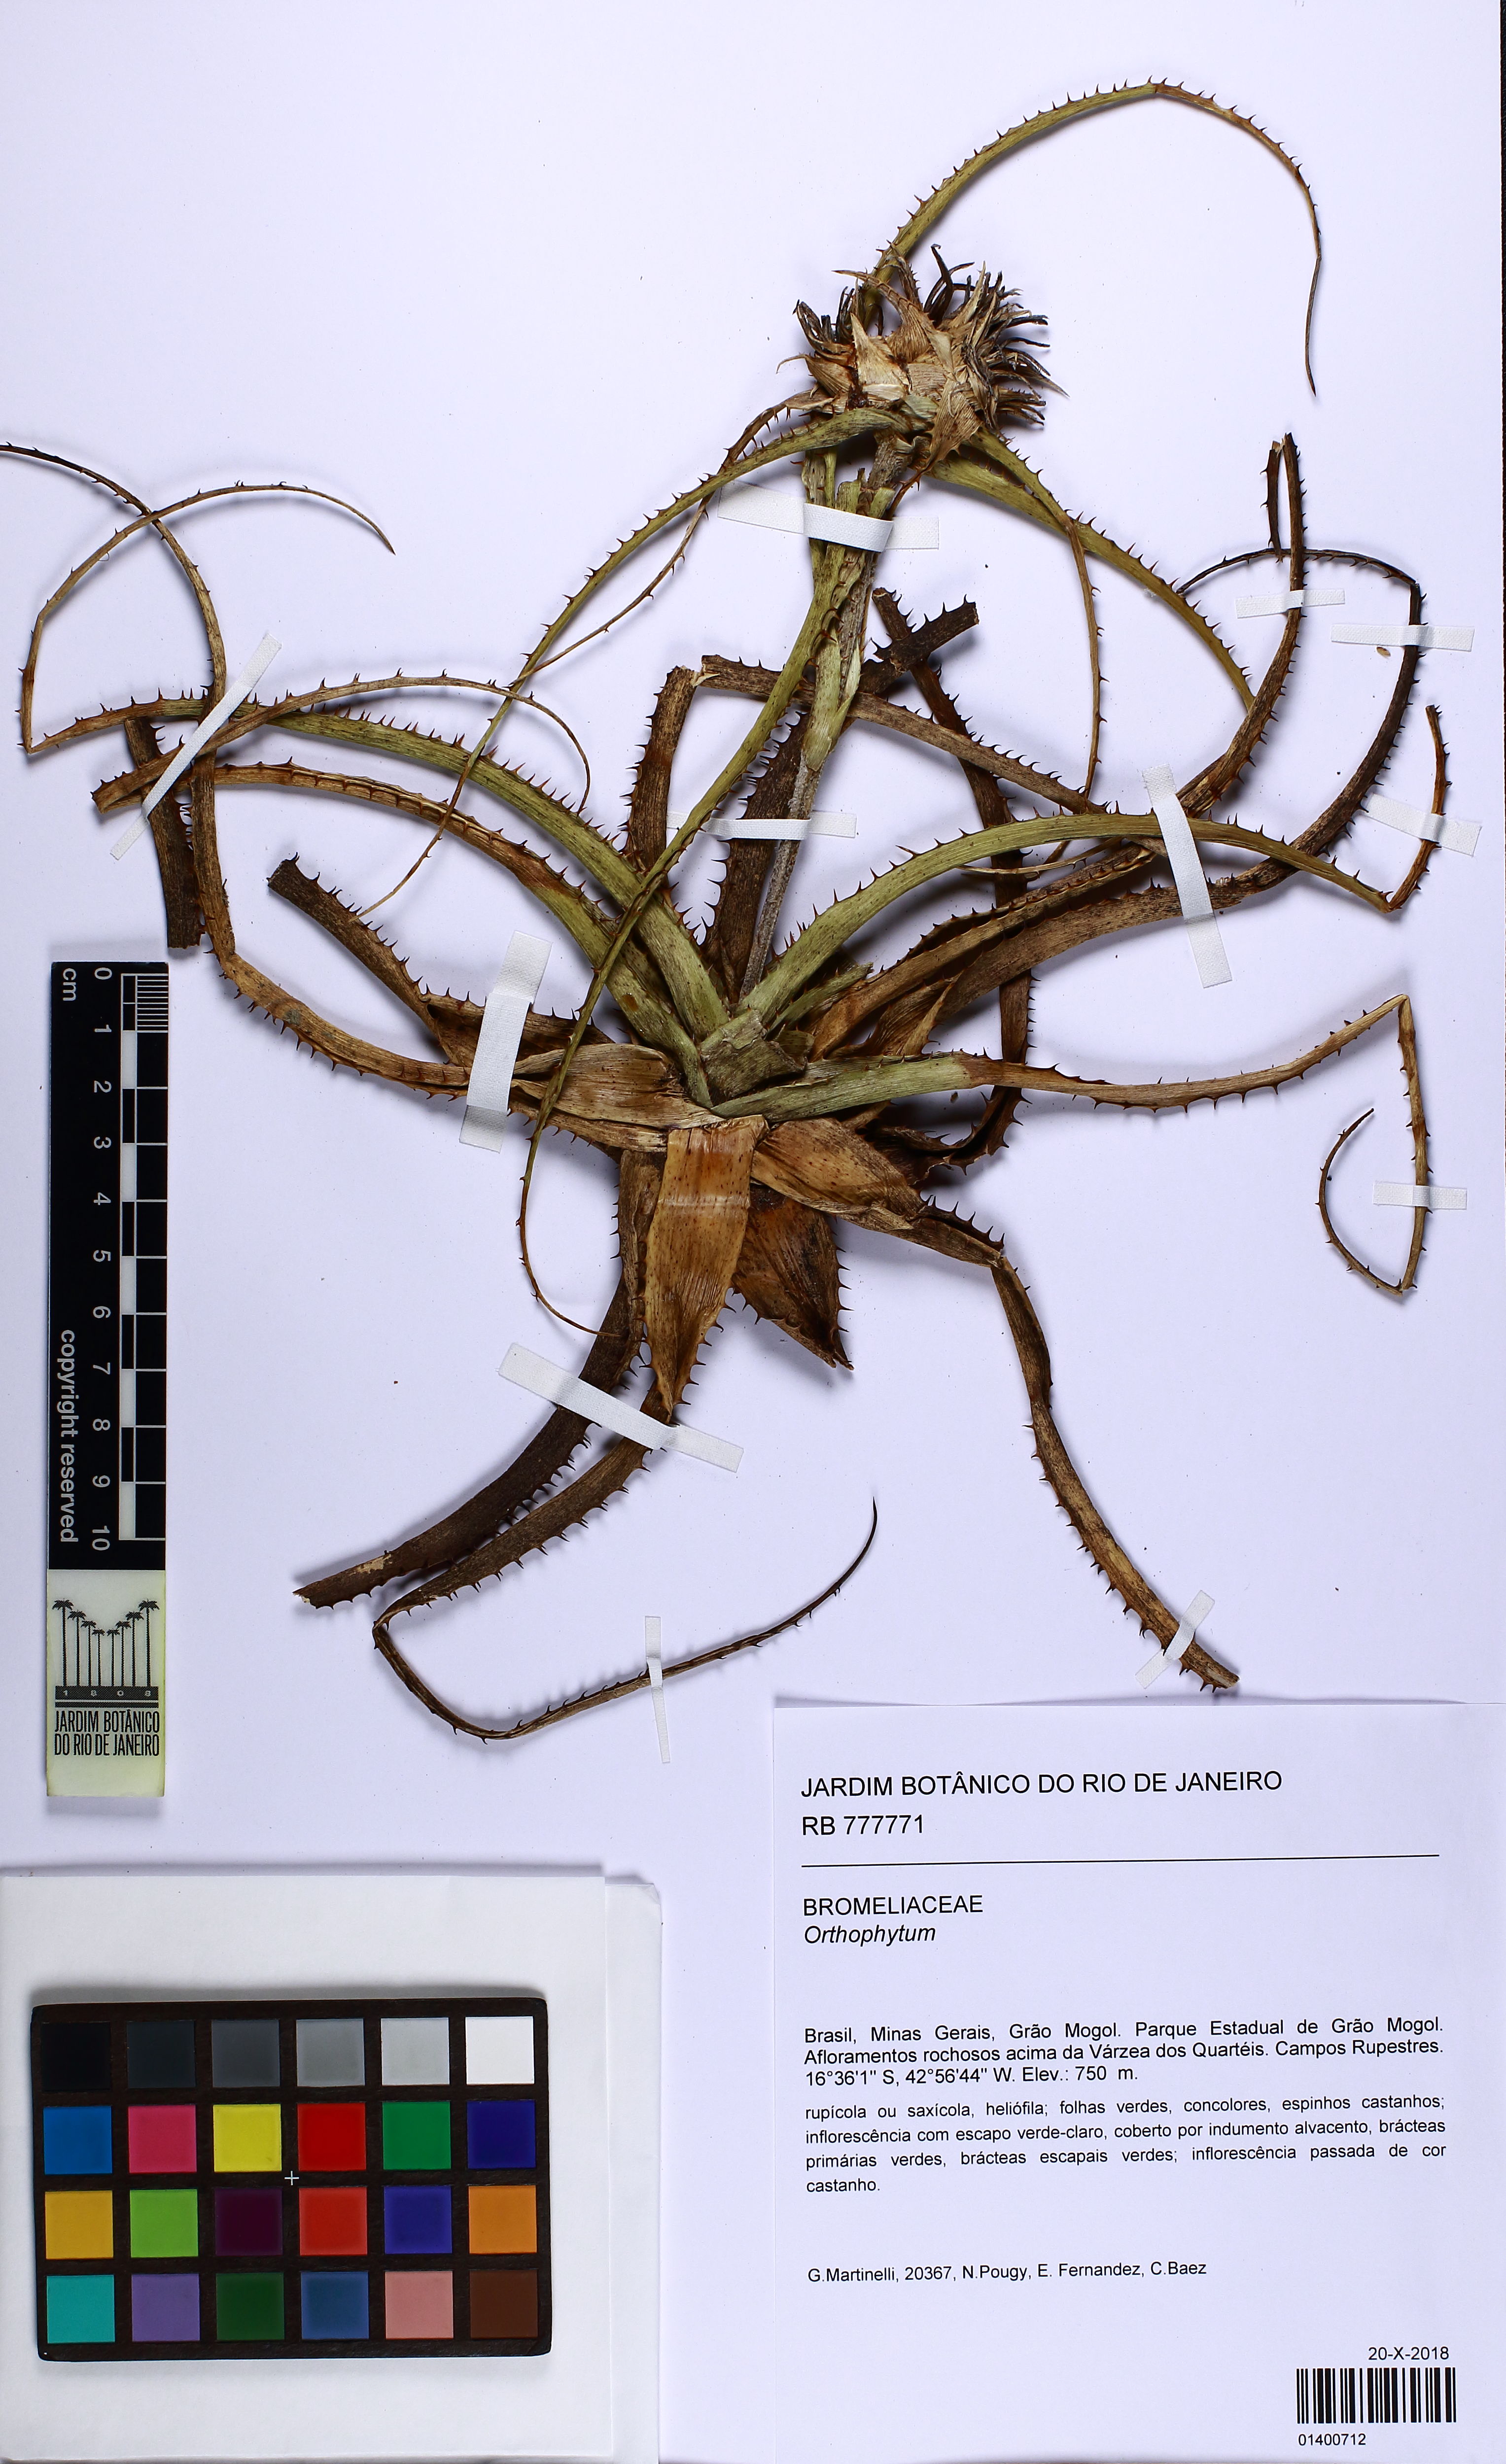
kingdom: Plantae
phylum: Tracheophyta
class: Liliopsida
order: Poales
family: Bromeliaceae
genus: Orthophytum
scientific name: Orthophytum
